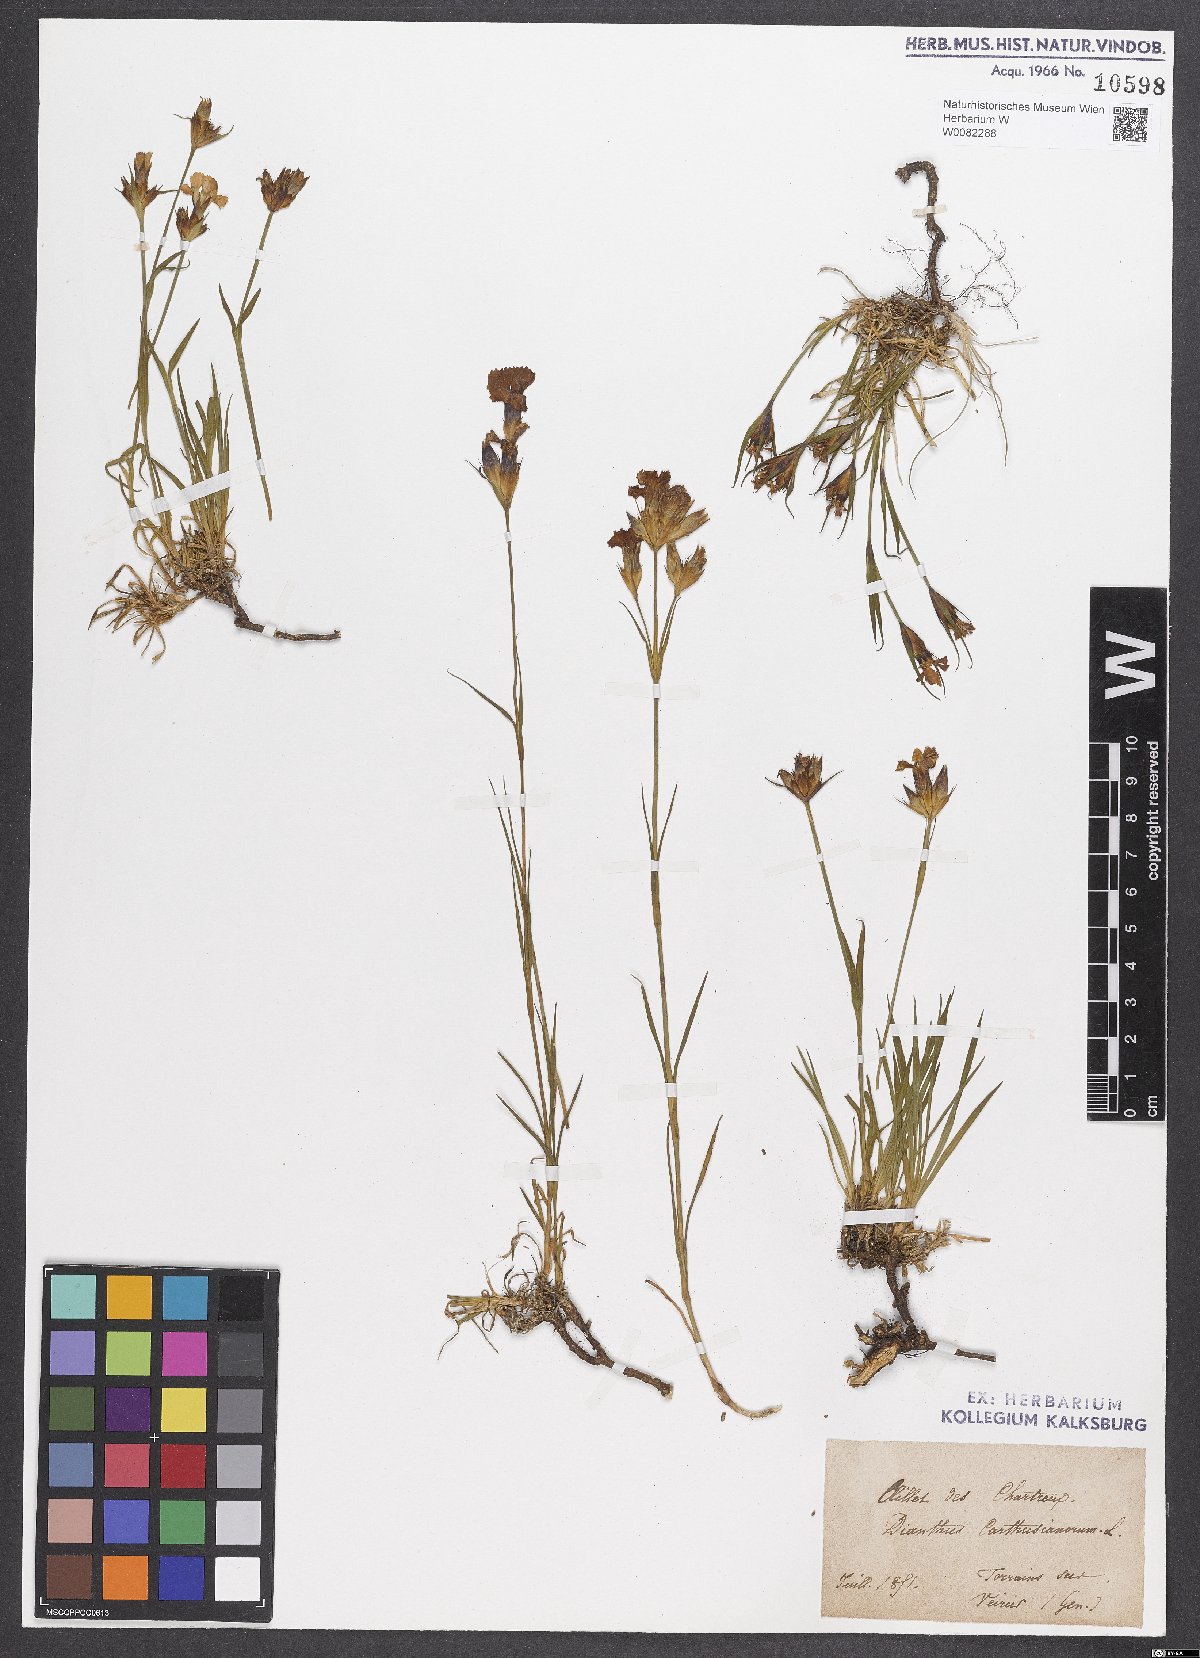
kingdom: Plantae
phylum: Tracheophyta
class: Magnoliopsida
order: Caryophyllales
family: Caryophyllaceae
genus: Dianthus
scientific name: Dianthus carthusianorum
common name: Carthusian pink
